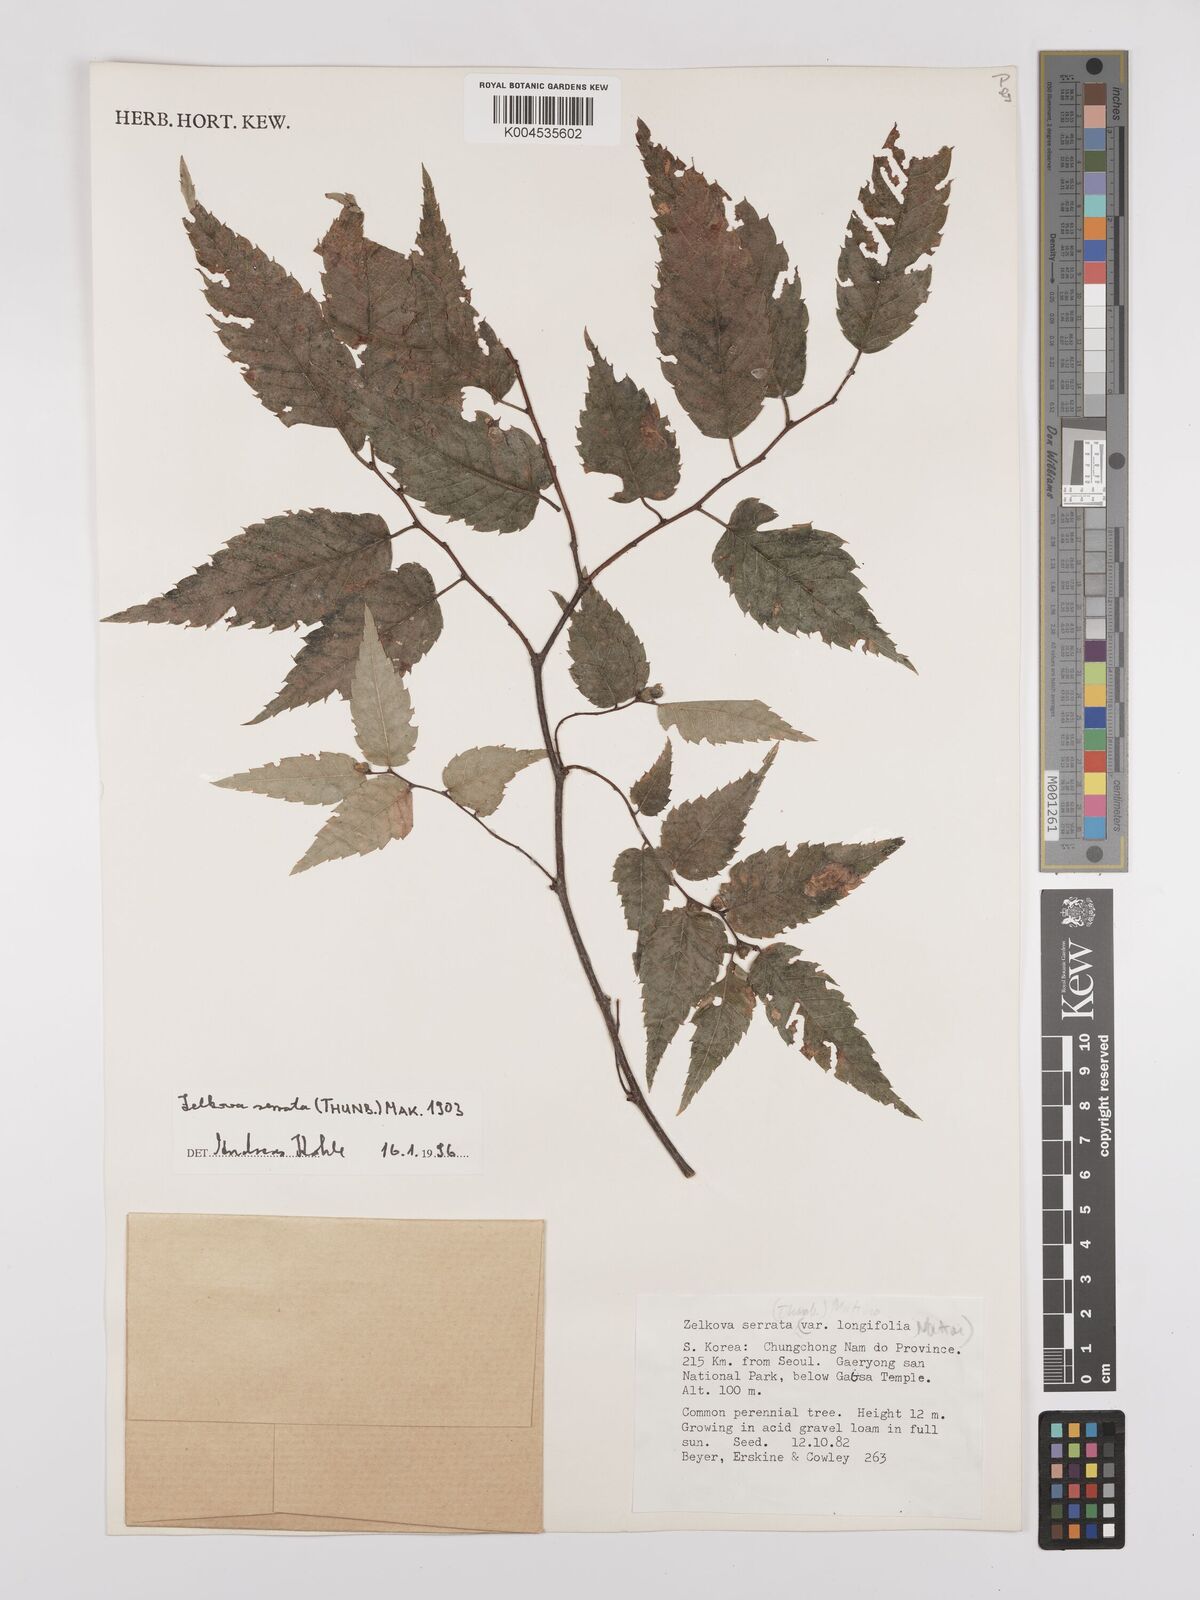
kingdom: Plantae
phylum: Tracheophyta
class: Magnoliopsida
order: Rosales
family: Ulmaceae
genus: Zelkova
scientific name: Zelkova serrata
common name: Japanese zelkova
